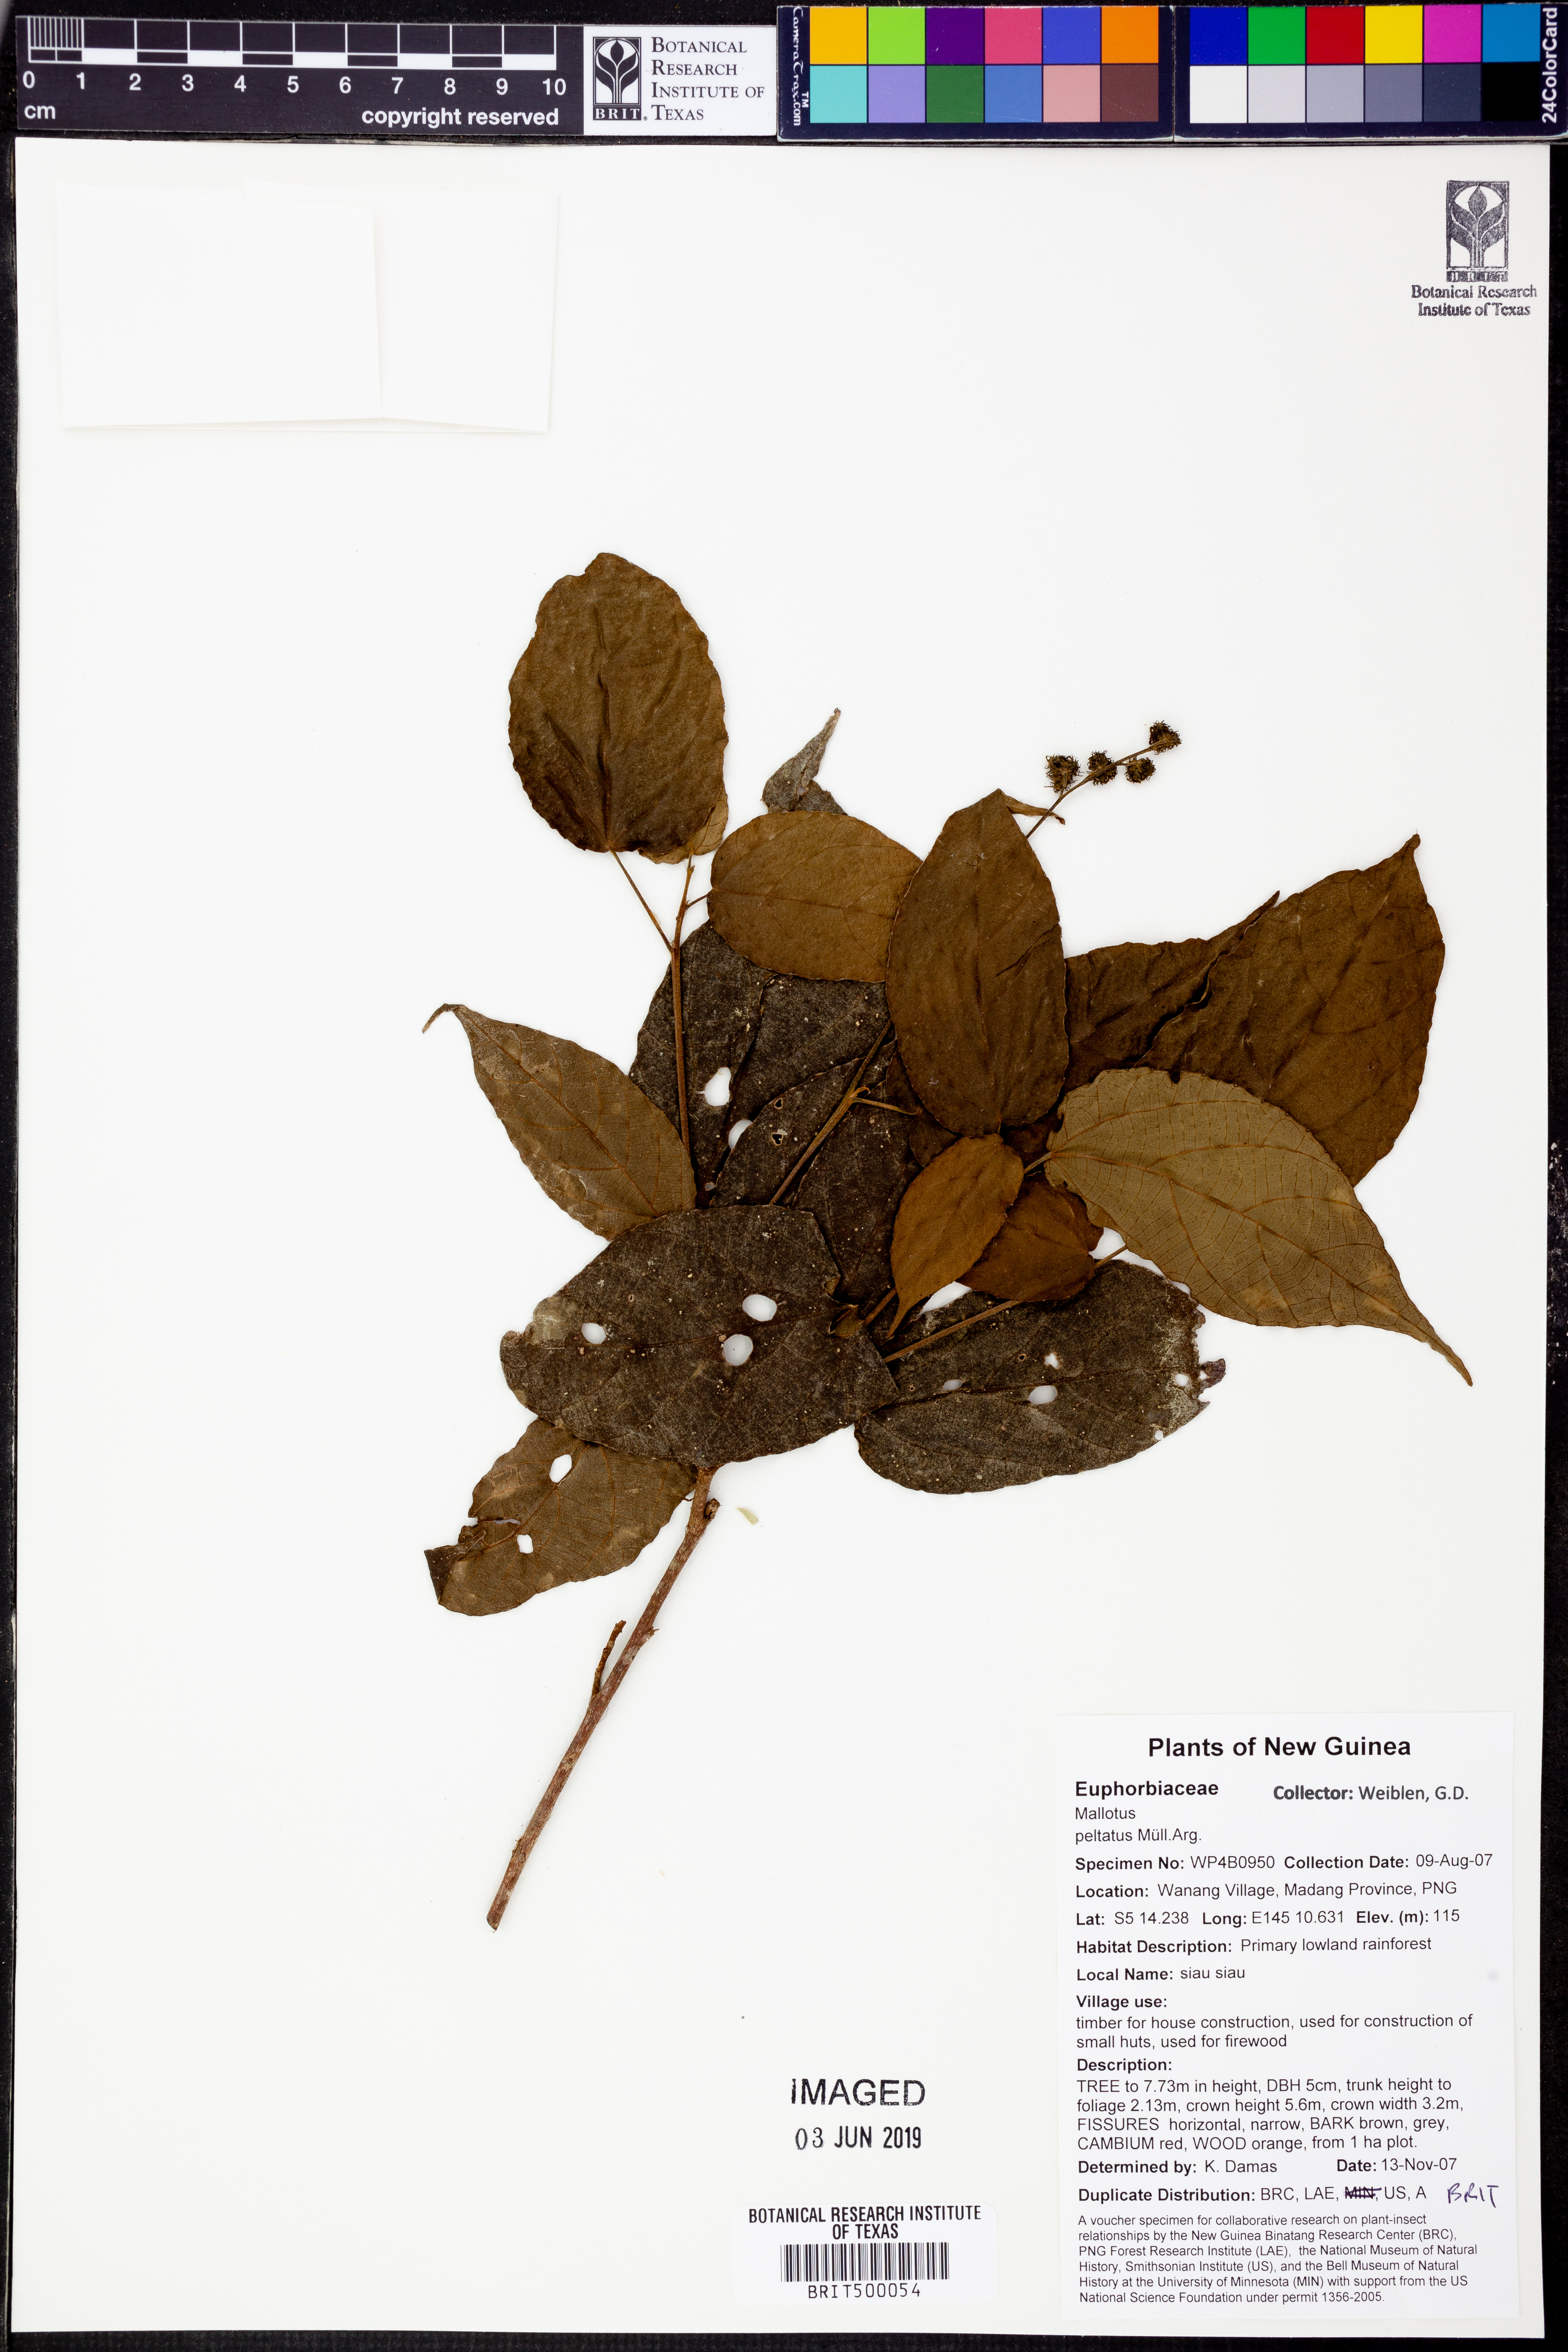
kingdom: Plantae
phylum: Tracheophyta
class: Magnoliopsida
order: Malpighiales
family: Euphorbiaceae
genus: Mallotus
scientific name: Mallotus peltatus
